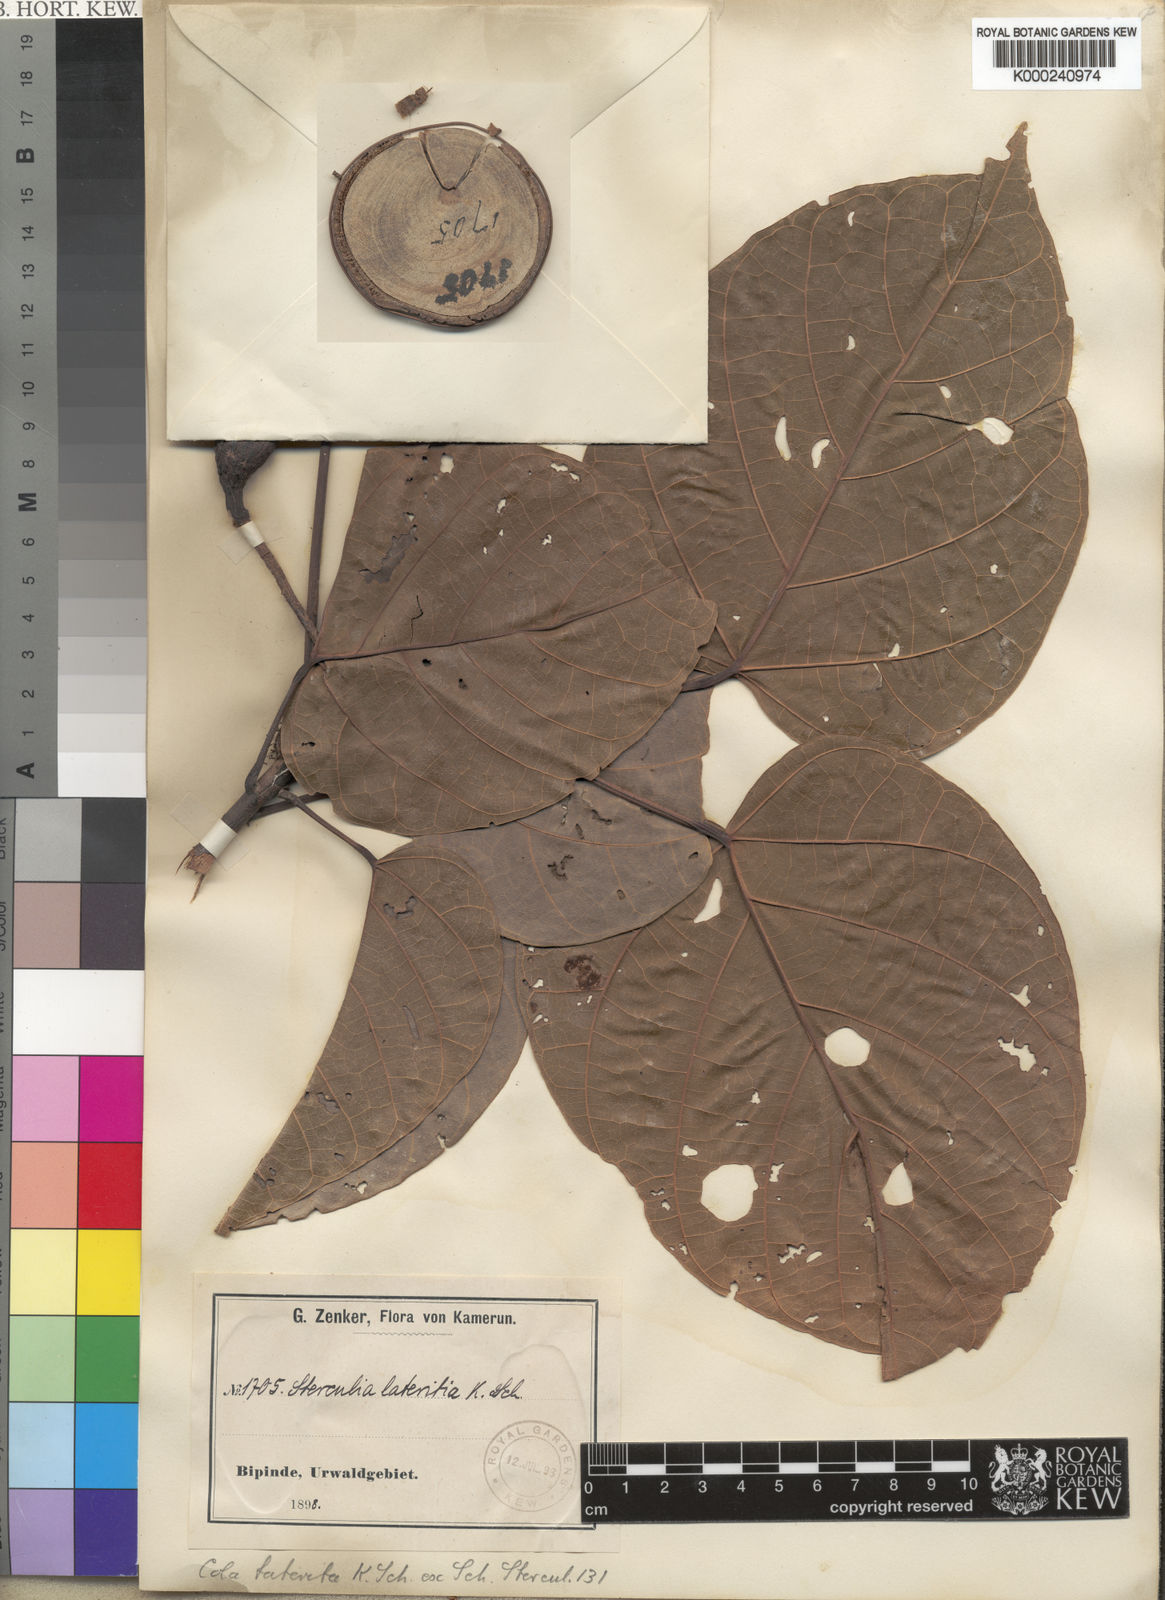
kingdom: Plantae
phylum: Tracheophyta
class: Magnoliopsida
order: Malvales
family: Malvaceae
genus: Cola
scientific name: Cola lateritia
